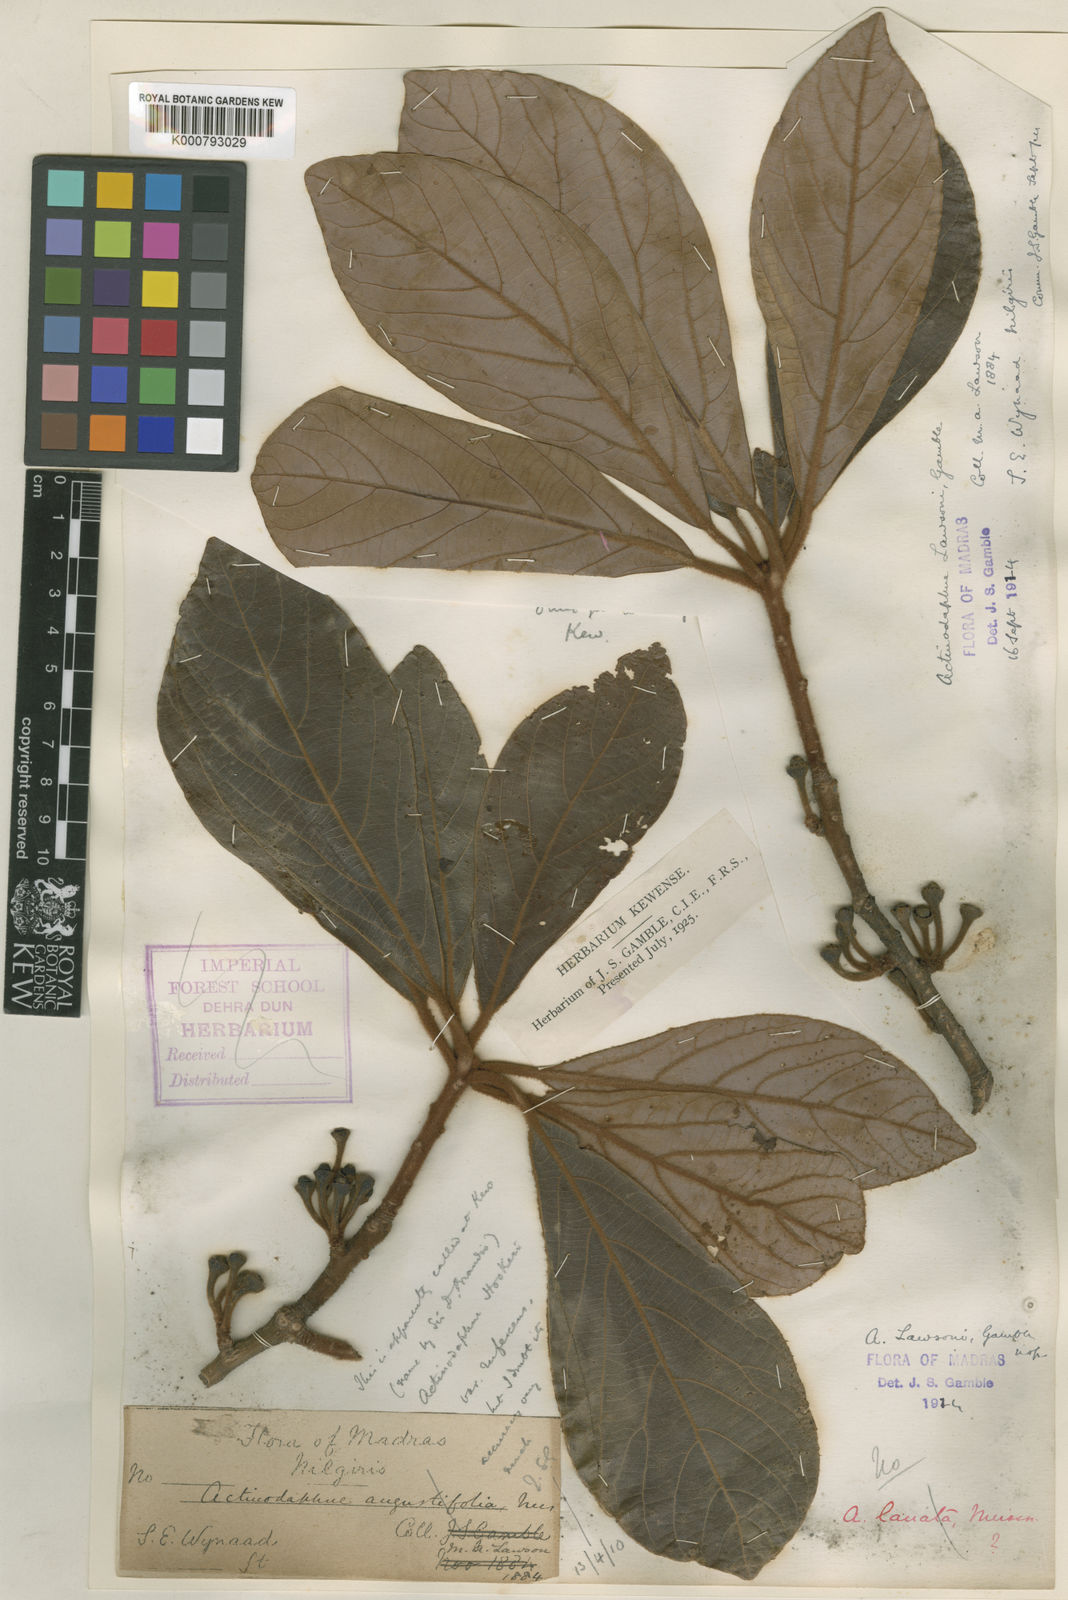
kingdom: Plantae
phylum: Tracheophyta
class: Magnoliopsida
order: Laurales
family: Lauraceae
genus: Actinodaphne
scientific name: Actinodaphne lawsonii
